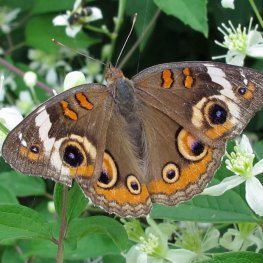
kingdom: Animalia
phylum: Arthropoda
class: Insecta
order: Lepidoptera
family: Nymphalidae
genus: Junonia
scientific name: Junonia coenia
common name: Common Buckeye
